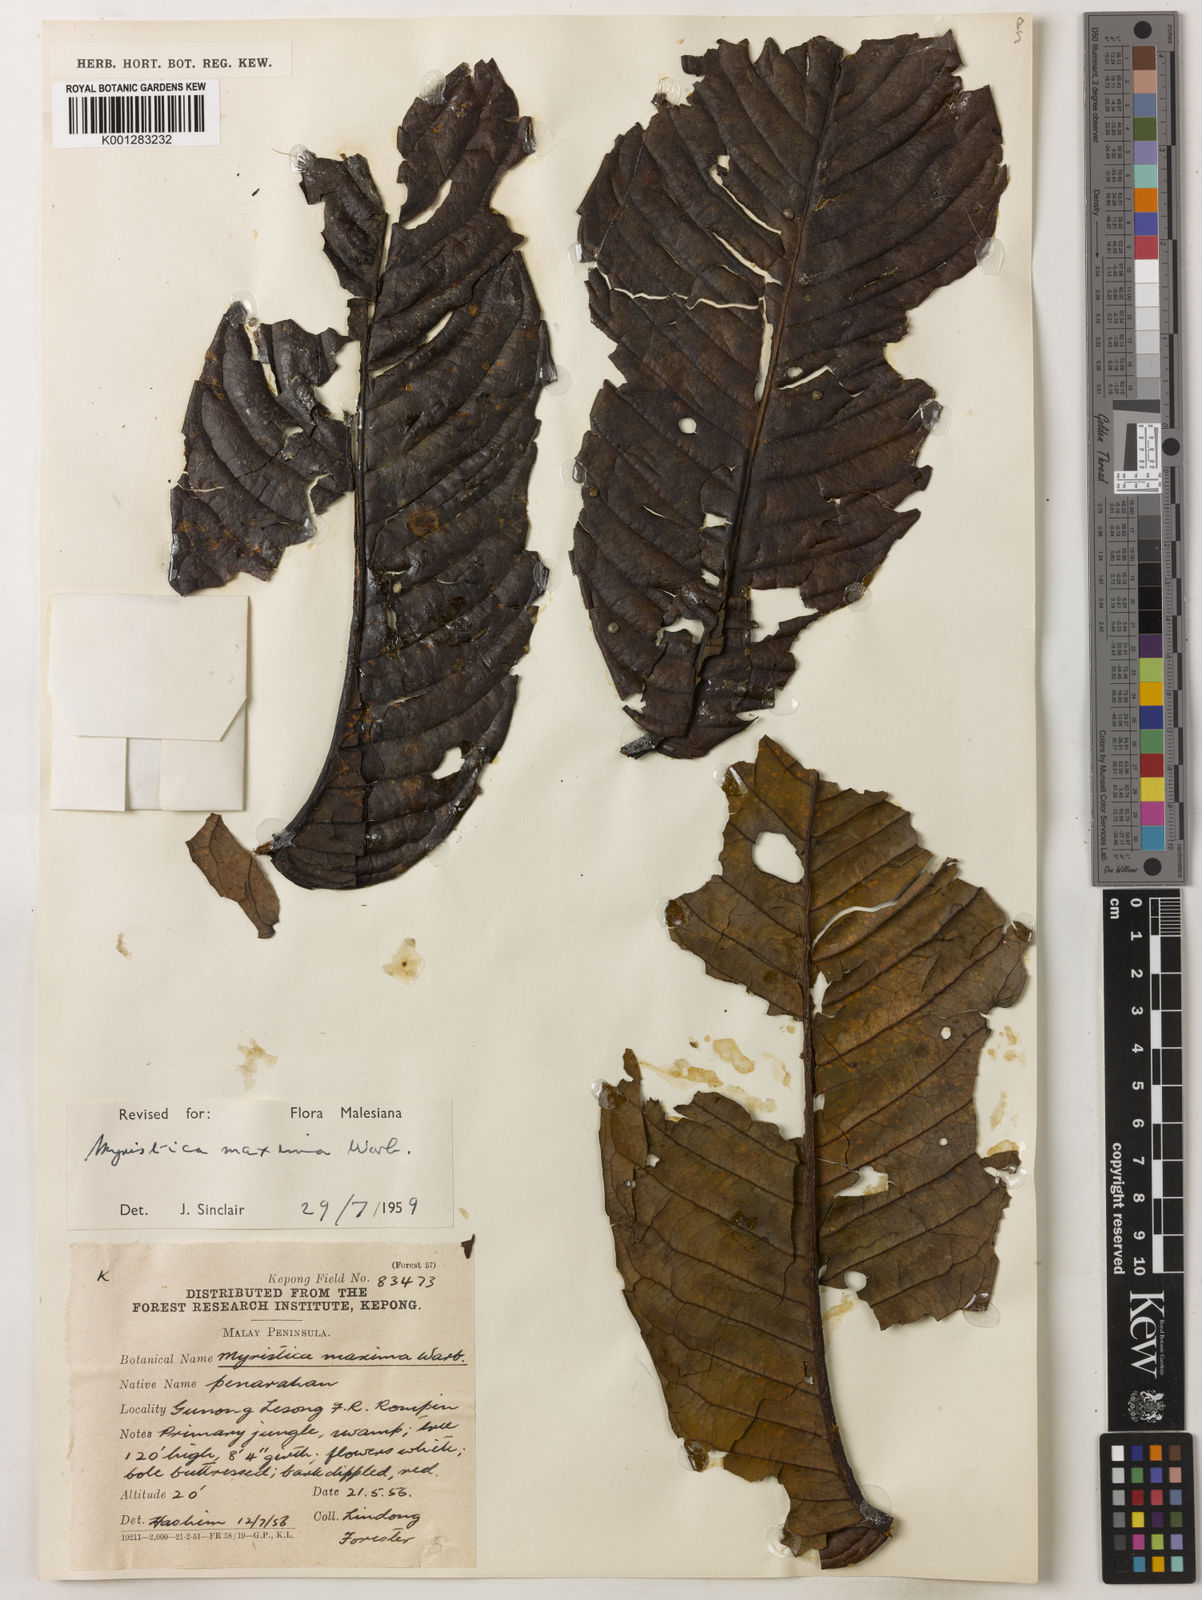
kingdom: Plantae
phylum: Tracheophyta
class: Magnoliopsida
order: Magnoliales
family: Myristicaceae
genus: Myristica
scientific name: Myristica maxima
